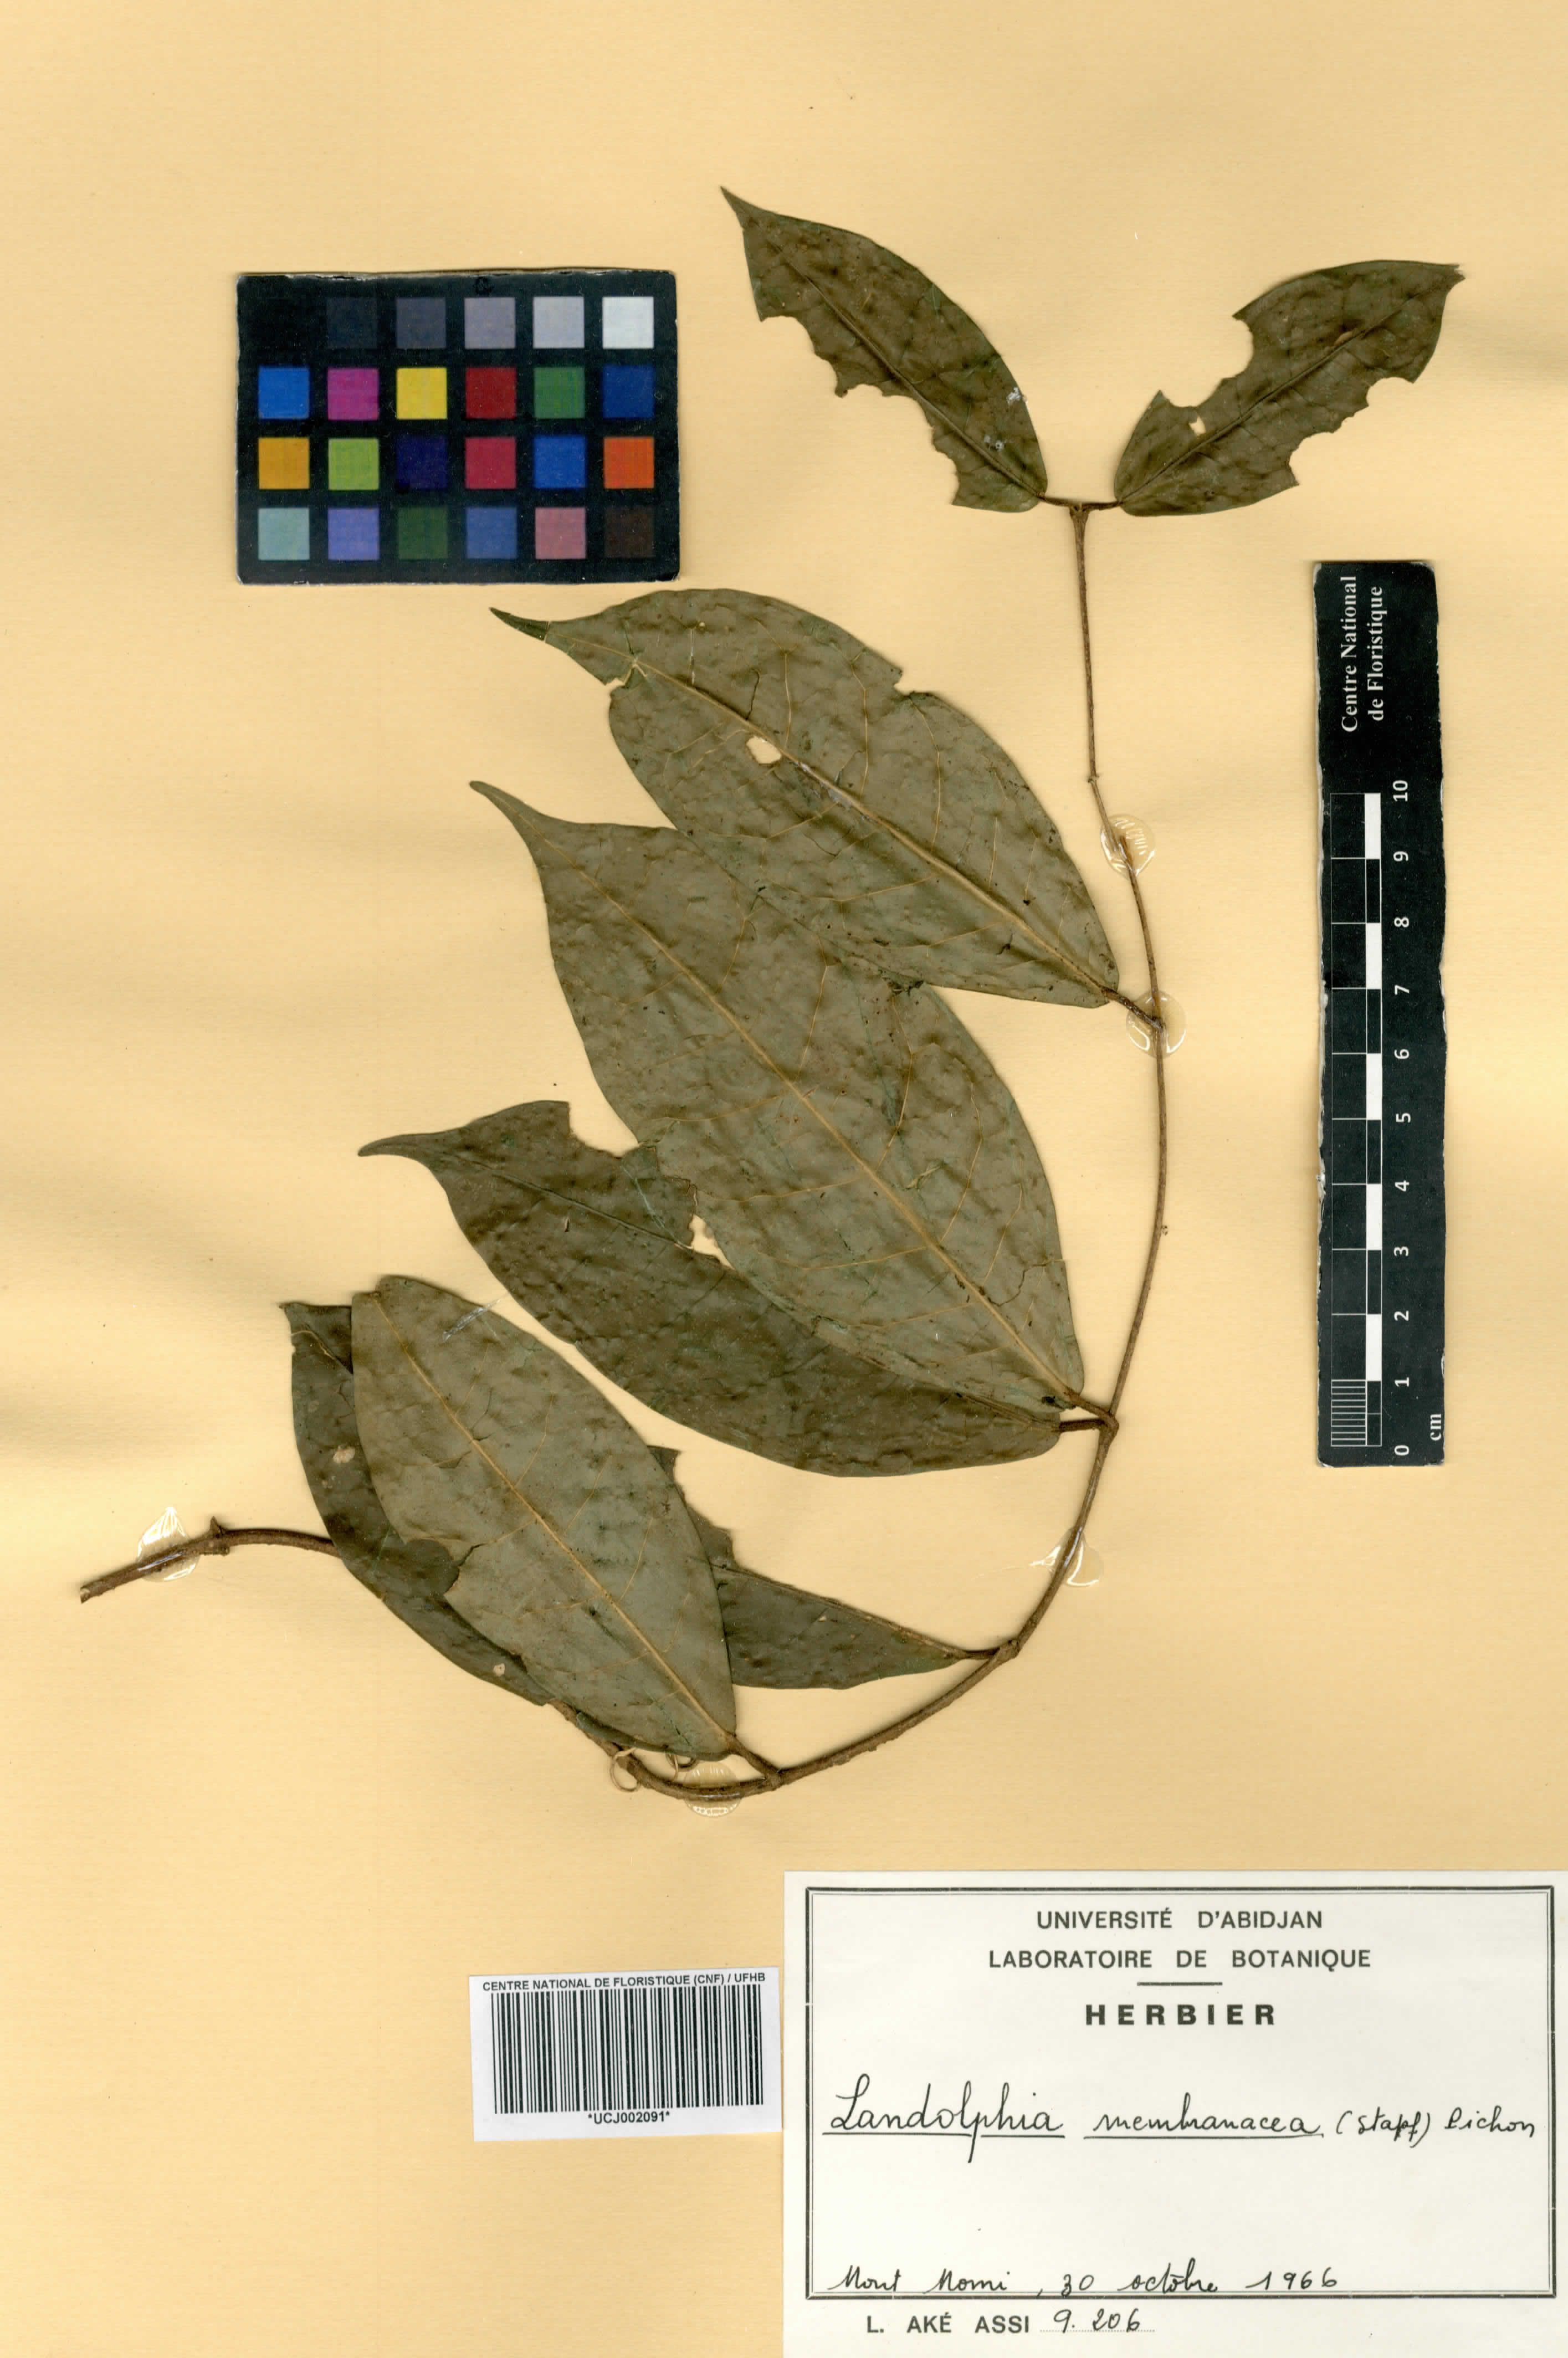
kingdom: Plantae
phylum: Tracheophyta
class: Magnoliopsida
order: Gentianales
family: Apocynaceae
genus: Landolphia
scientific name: Landolphia membranacea
